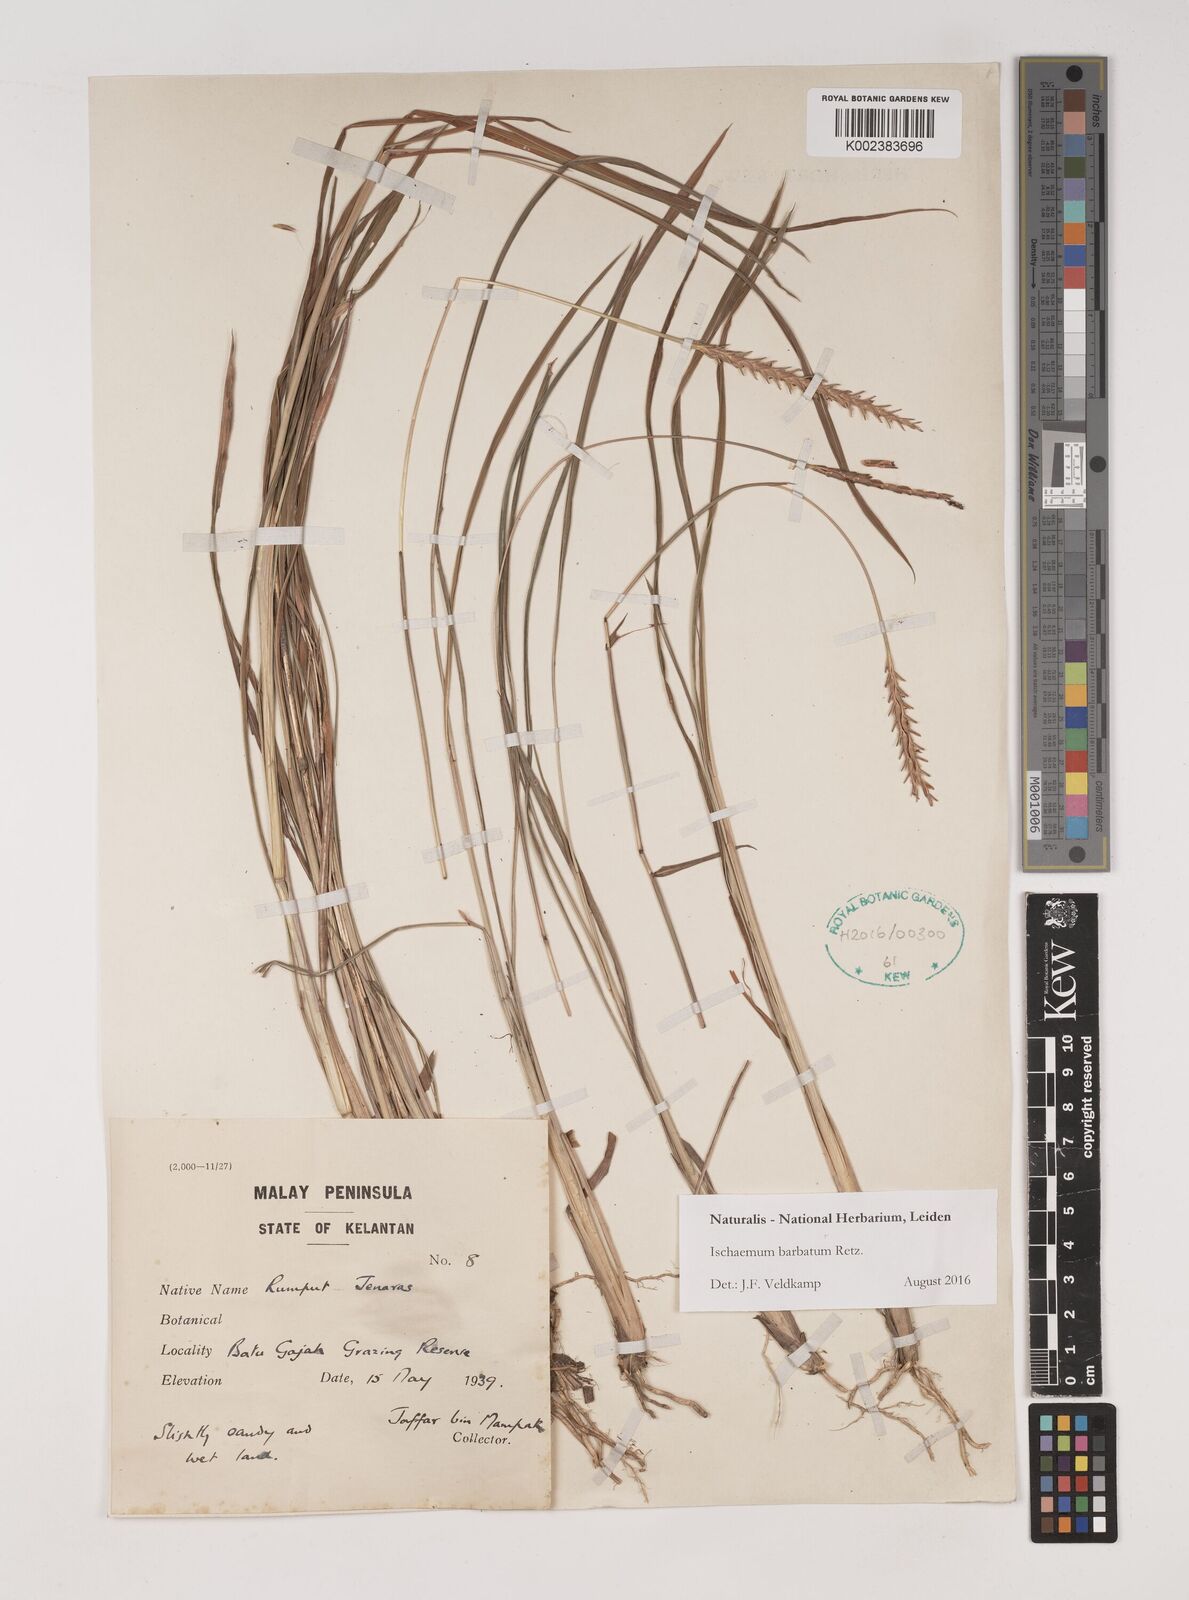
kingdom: Plantae
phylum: Tracheophyta
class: Liliopsida
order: Poales
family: Poaceae
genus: Ischaemum
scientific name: Ischaemum barbatum
